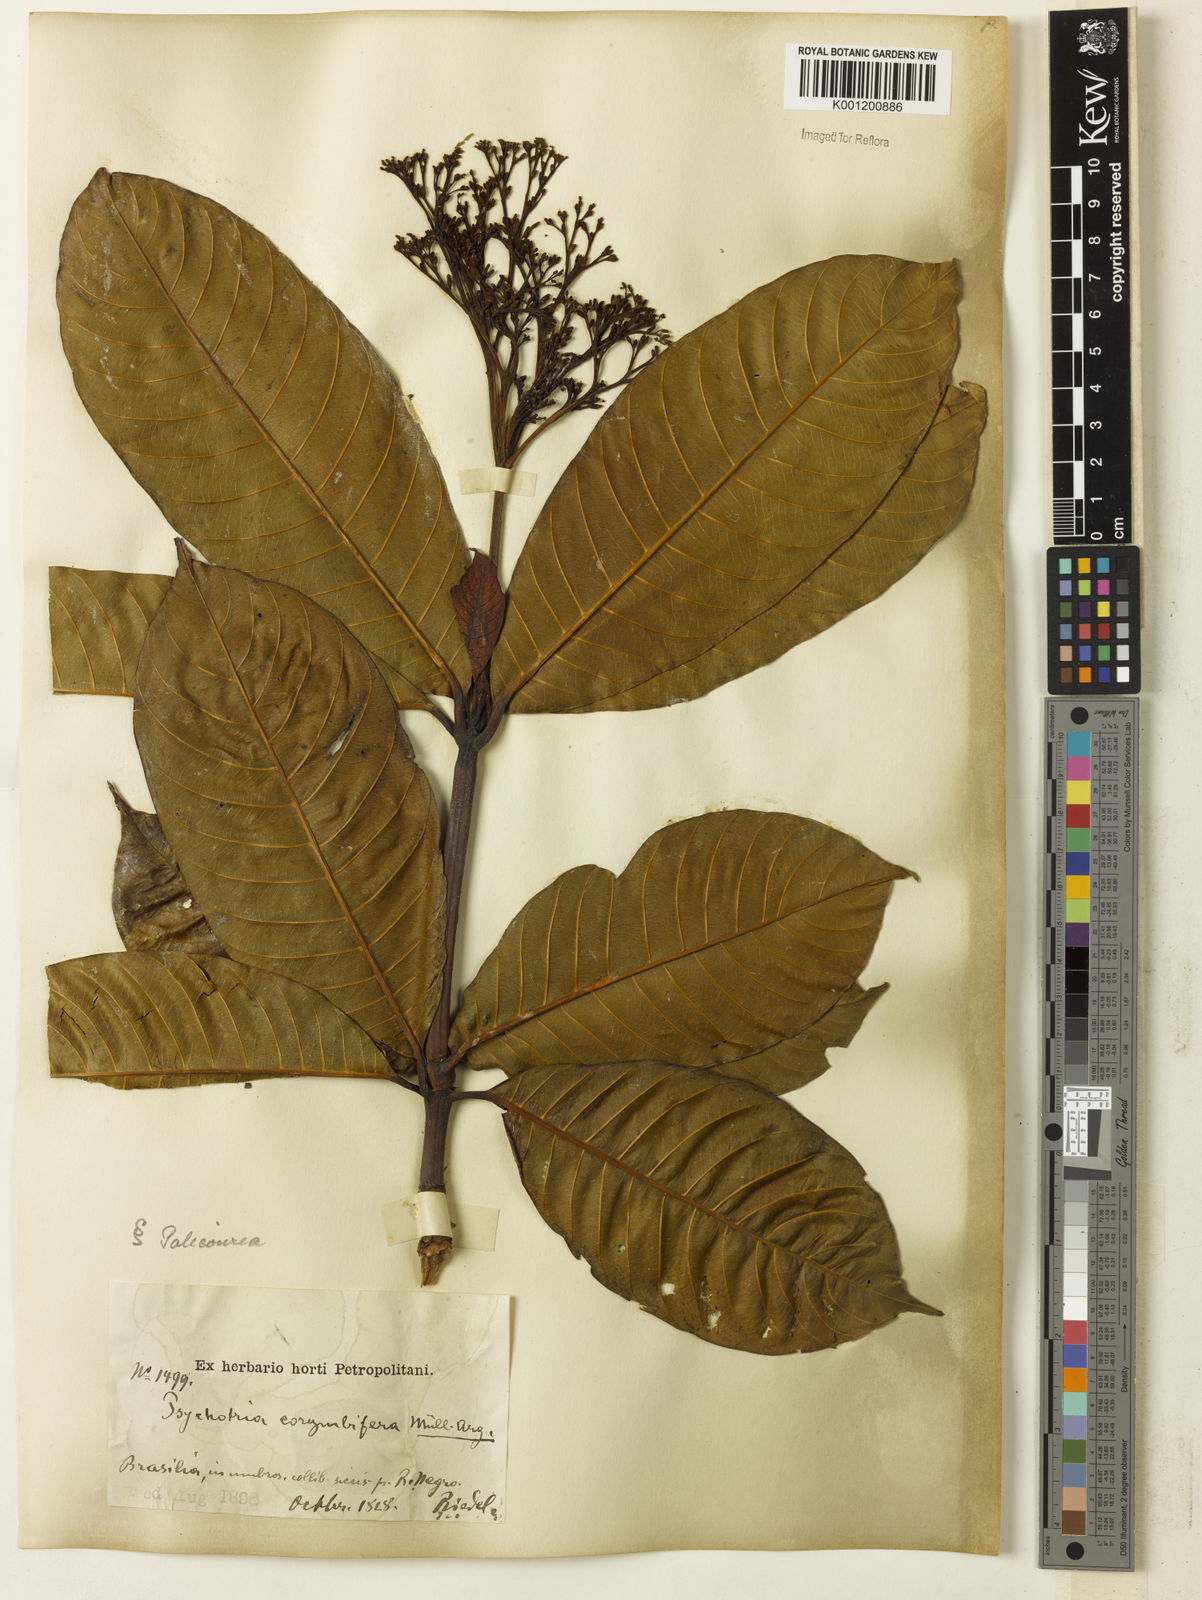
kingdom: Plantae
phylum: Tracheophyta
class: Magnoliopsida
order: Gentianales
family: Rubiaceae
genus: Palicourea
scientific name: Palicourea
